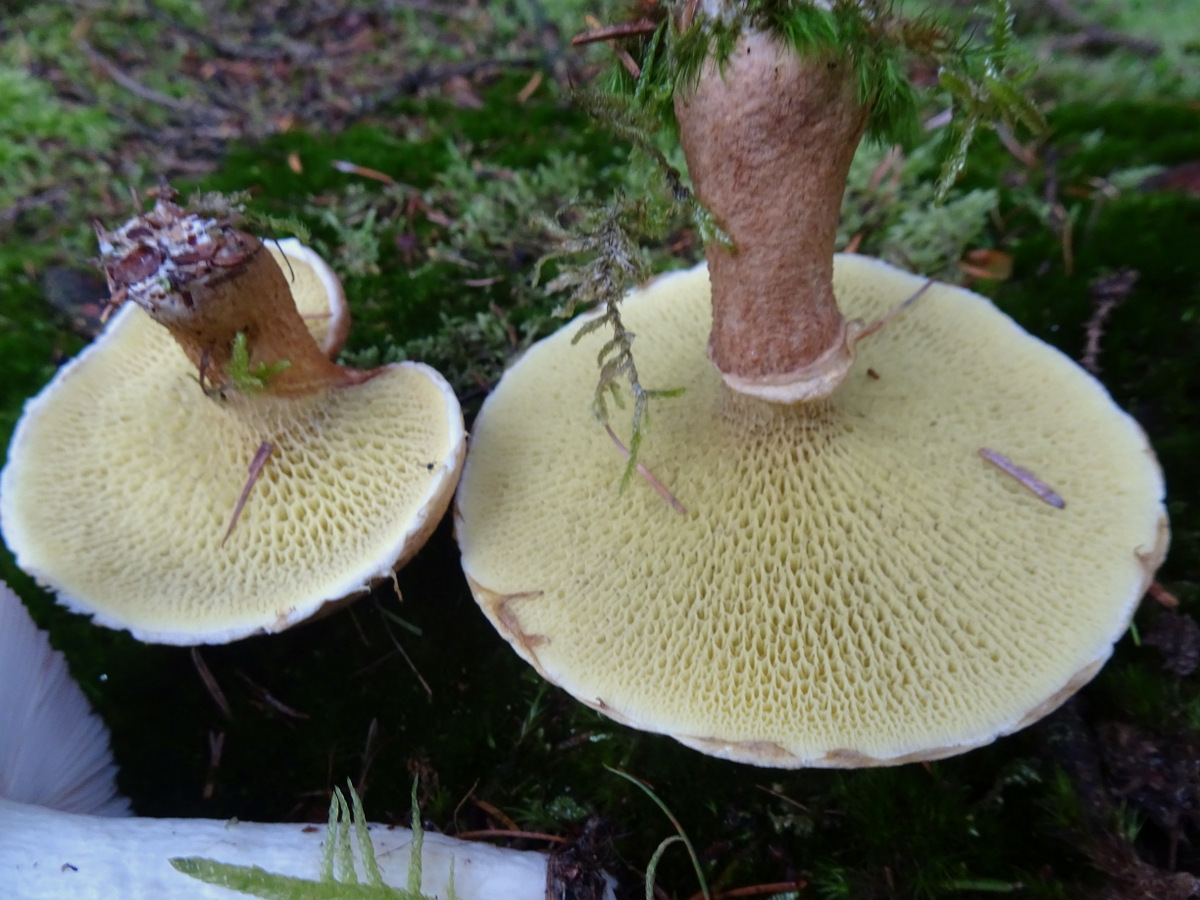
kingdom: Fungi
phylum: Basidiomycota
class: Agaricomycetes
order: Boletales
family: Suillaceae
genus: Suillus
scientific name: Suillus cavipes
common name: hulstokket slimrørhat
